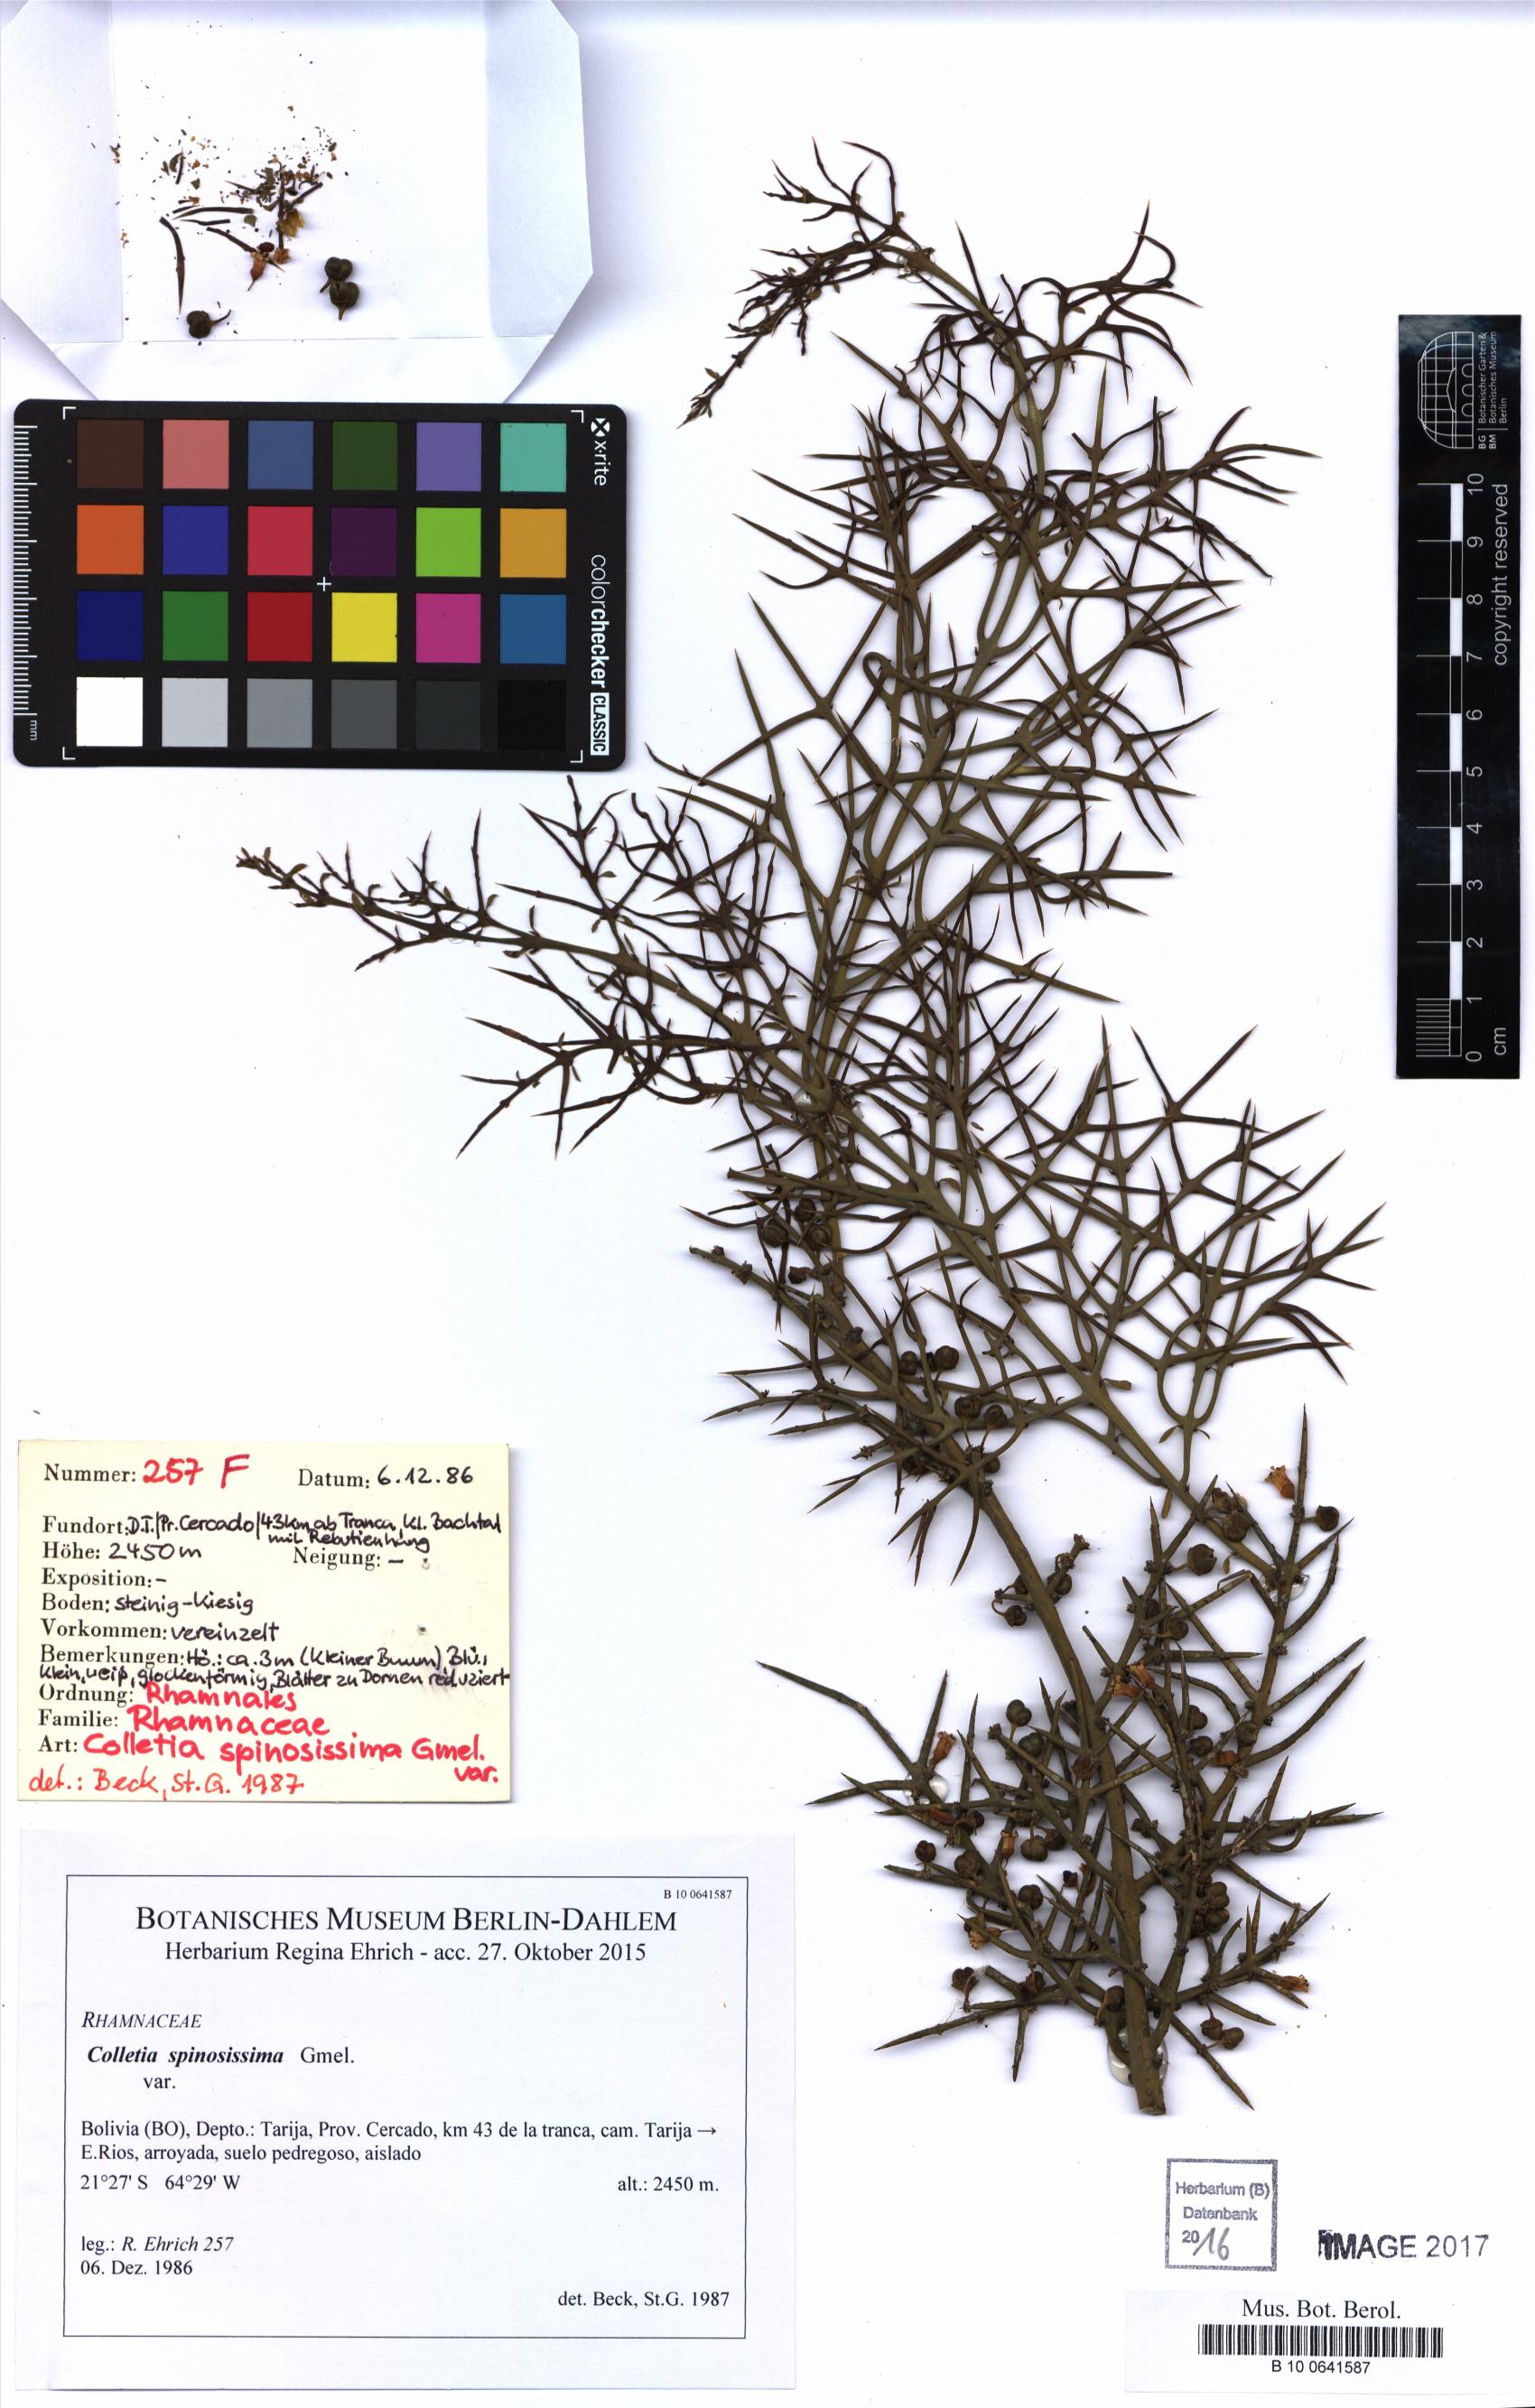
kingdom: Plantae
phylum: Tracheophyta
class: Magnoliopsida
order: Rosales
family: Rhamnaceae
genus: Colletia
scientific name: Colletia spinosissima
